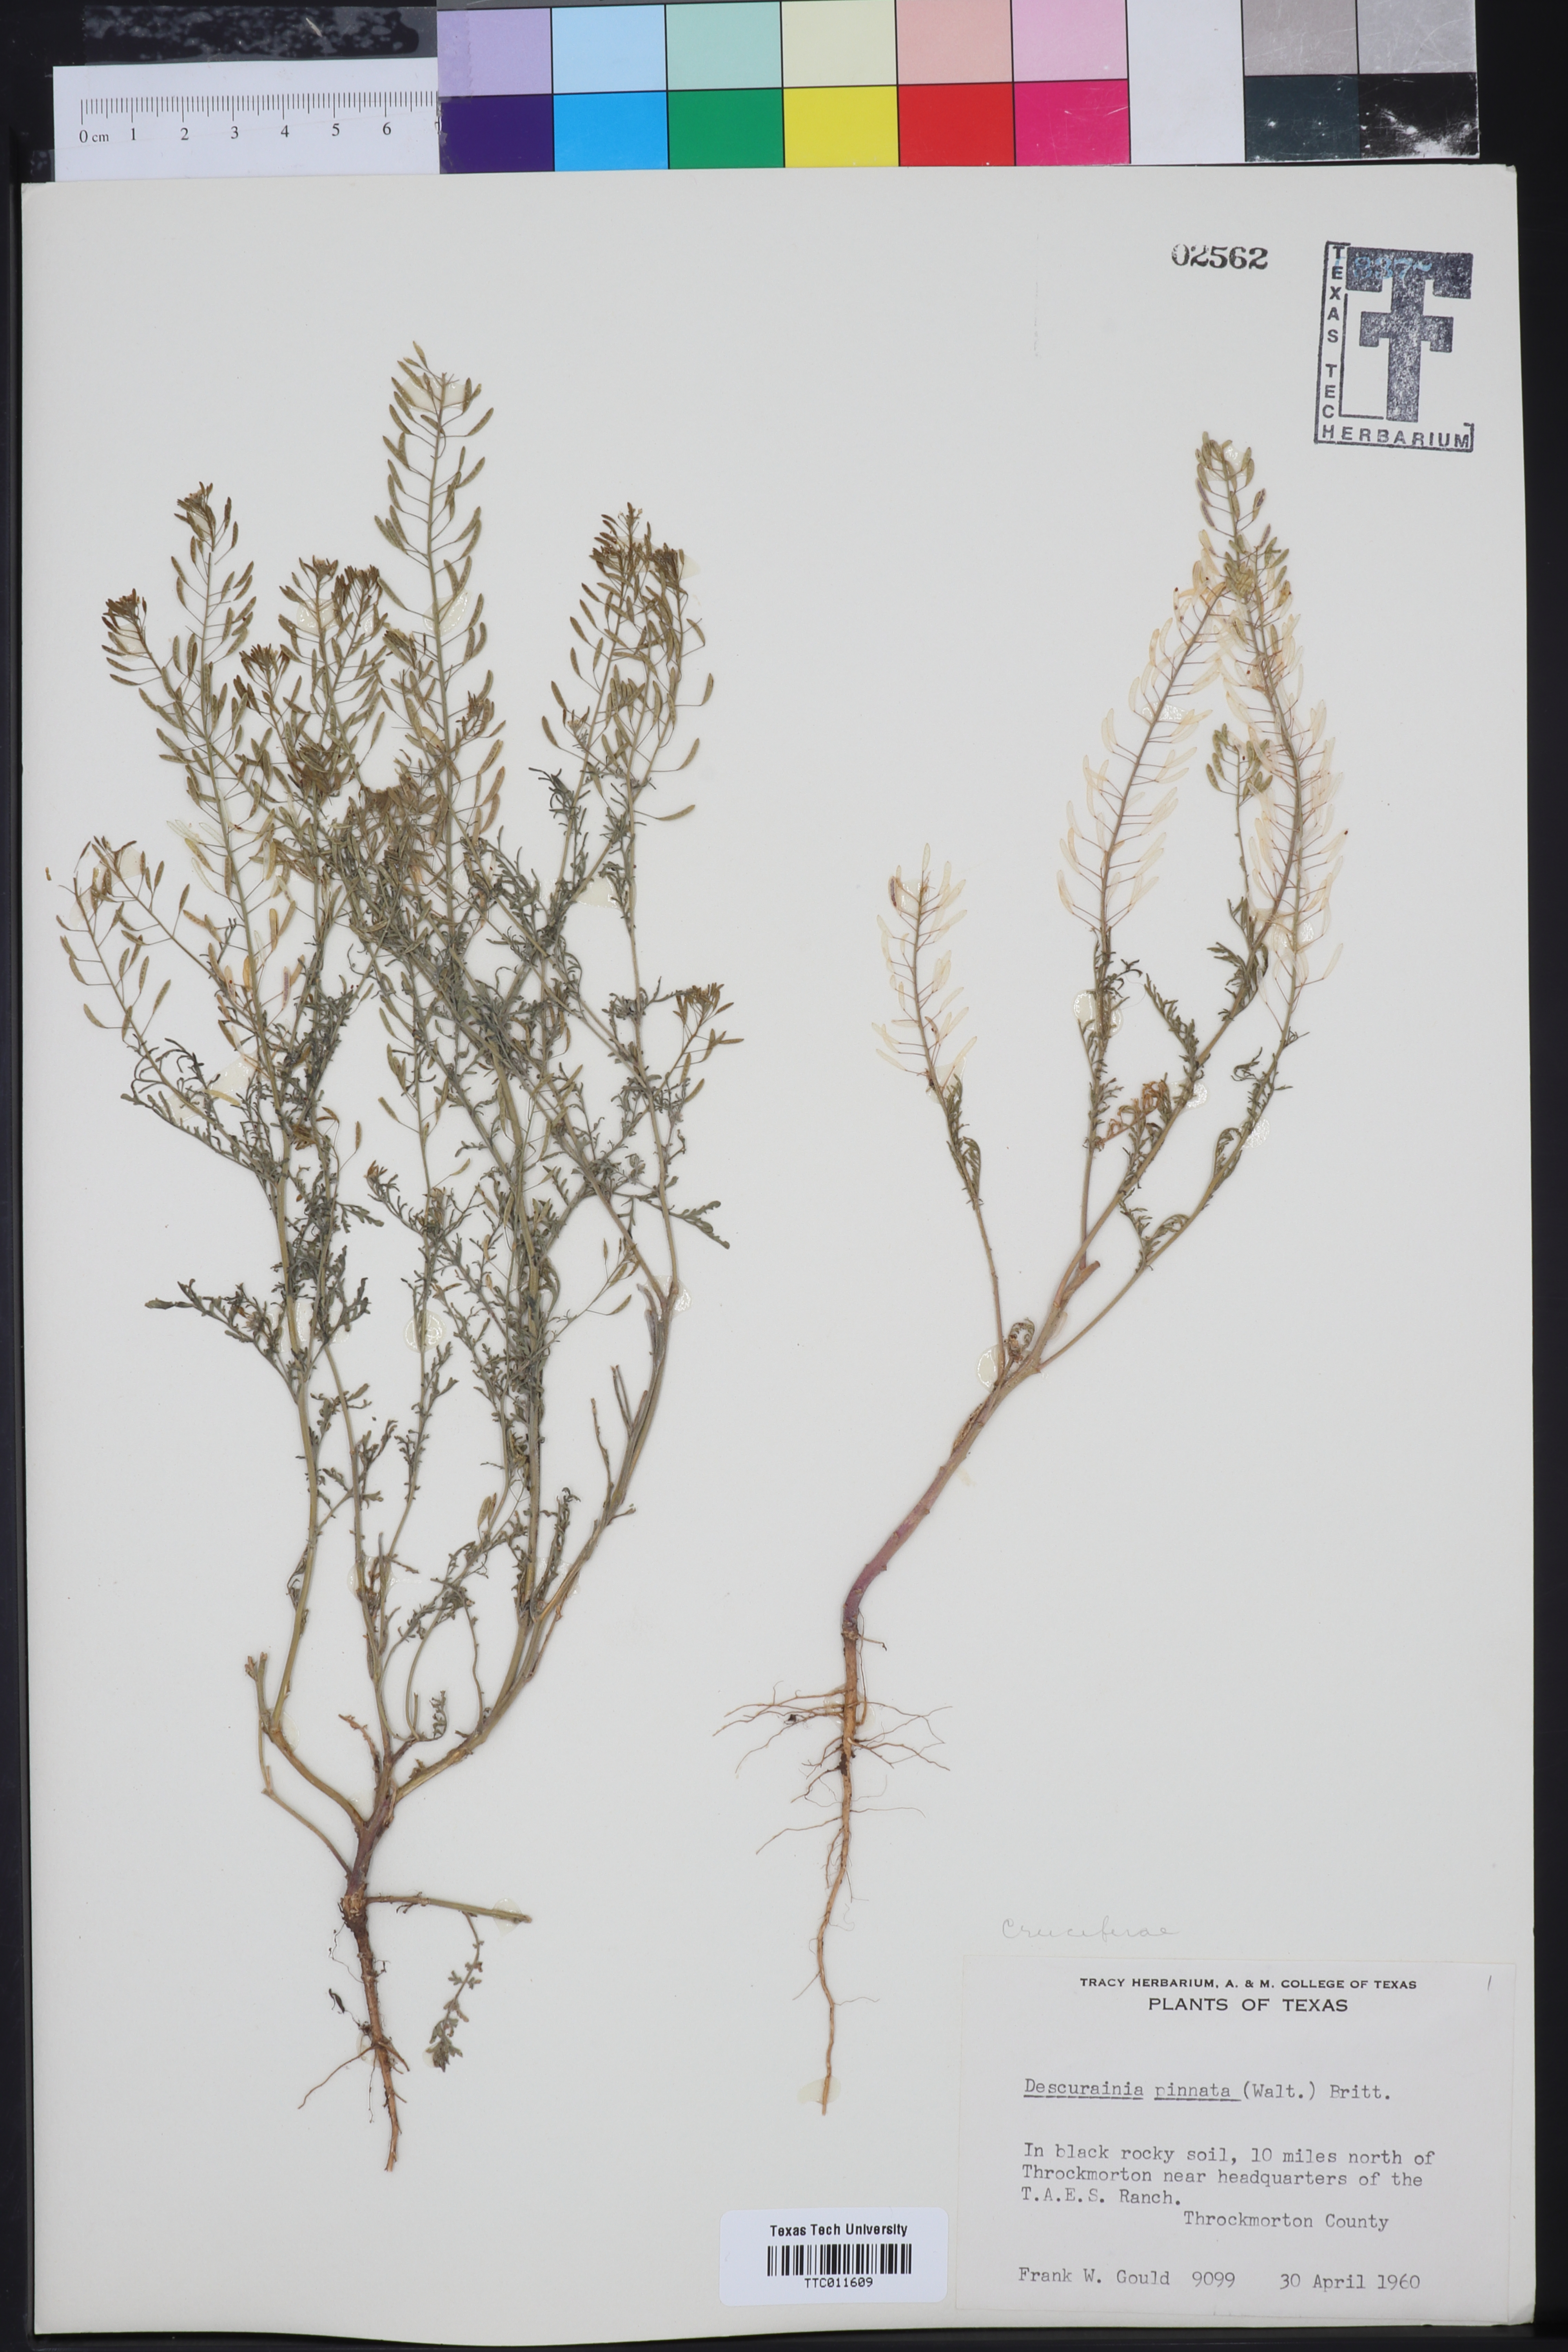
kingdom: Plantae
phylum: Tracheophyta
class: Magnoliopsida
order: Brassicales
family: Brassicaceae
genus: Descurainia
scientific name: Descurainia pinnata
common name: Western tansy mustard
